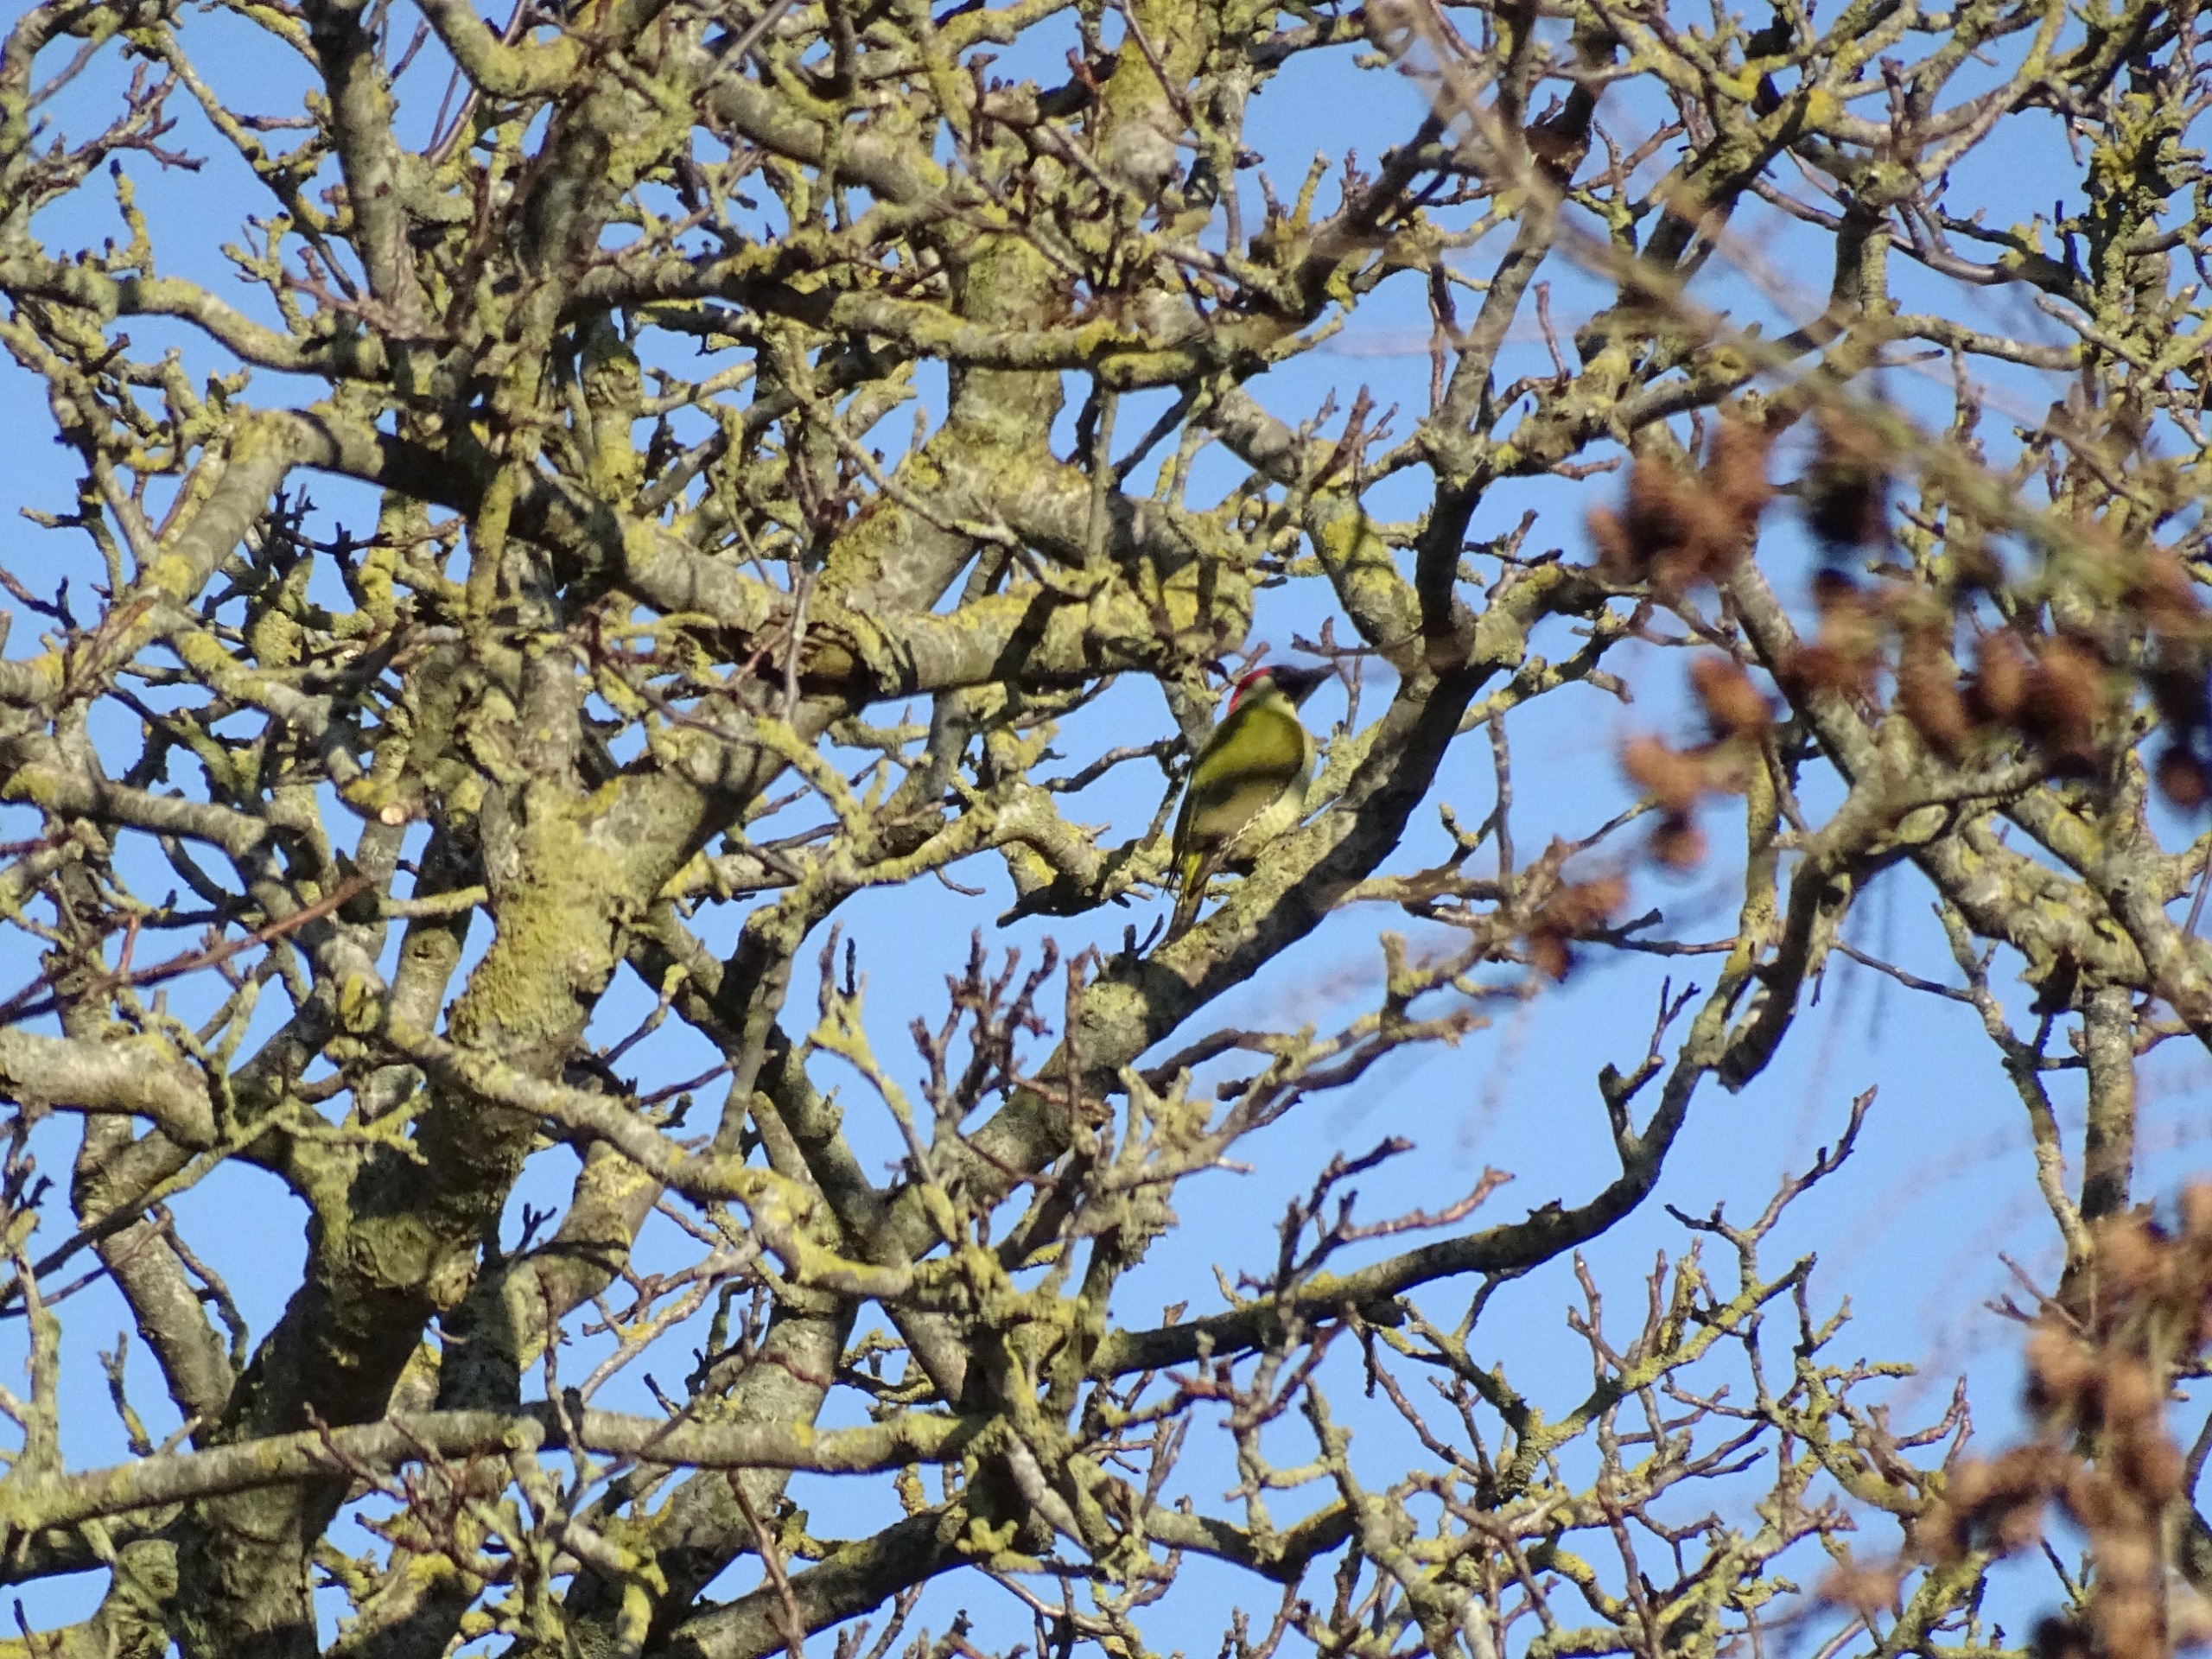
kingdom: Animalia
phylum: Chordata
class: Aves
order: Piciformes
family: Picidae
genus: Picus
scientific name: Picus viridis
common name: Grønspætte
